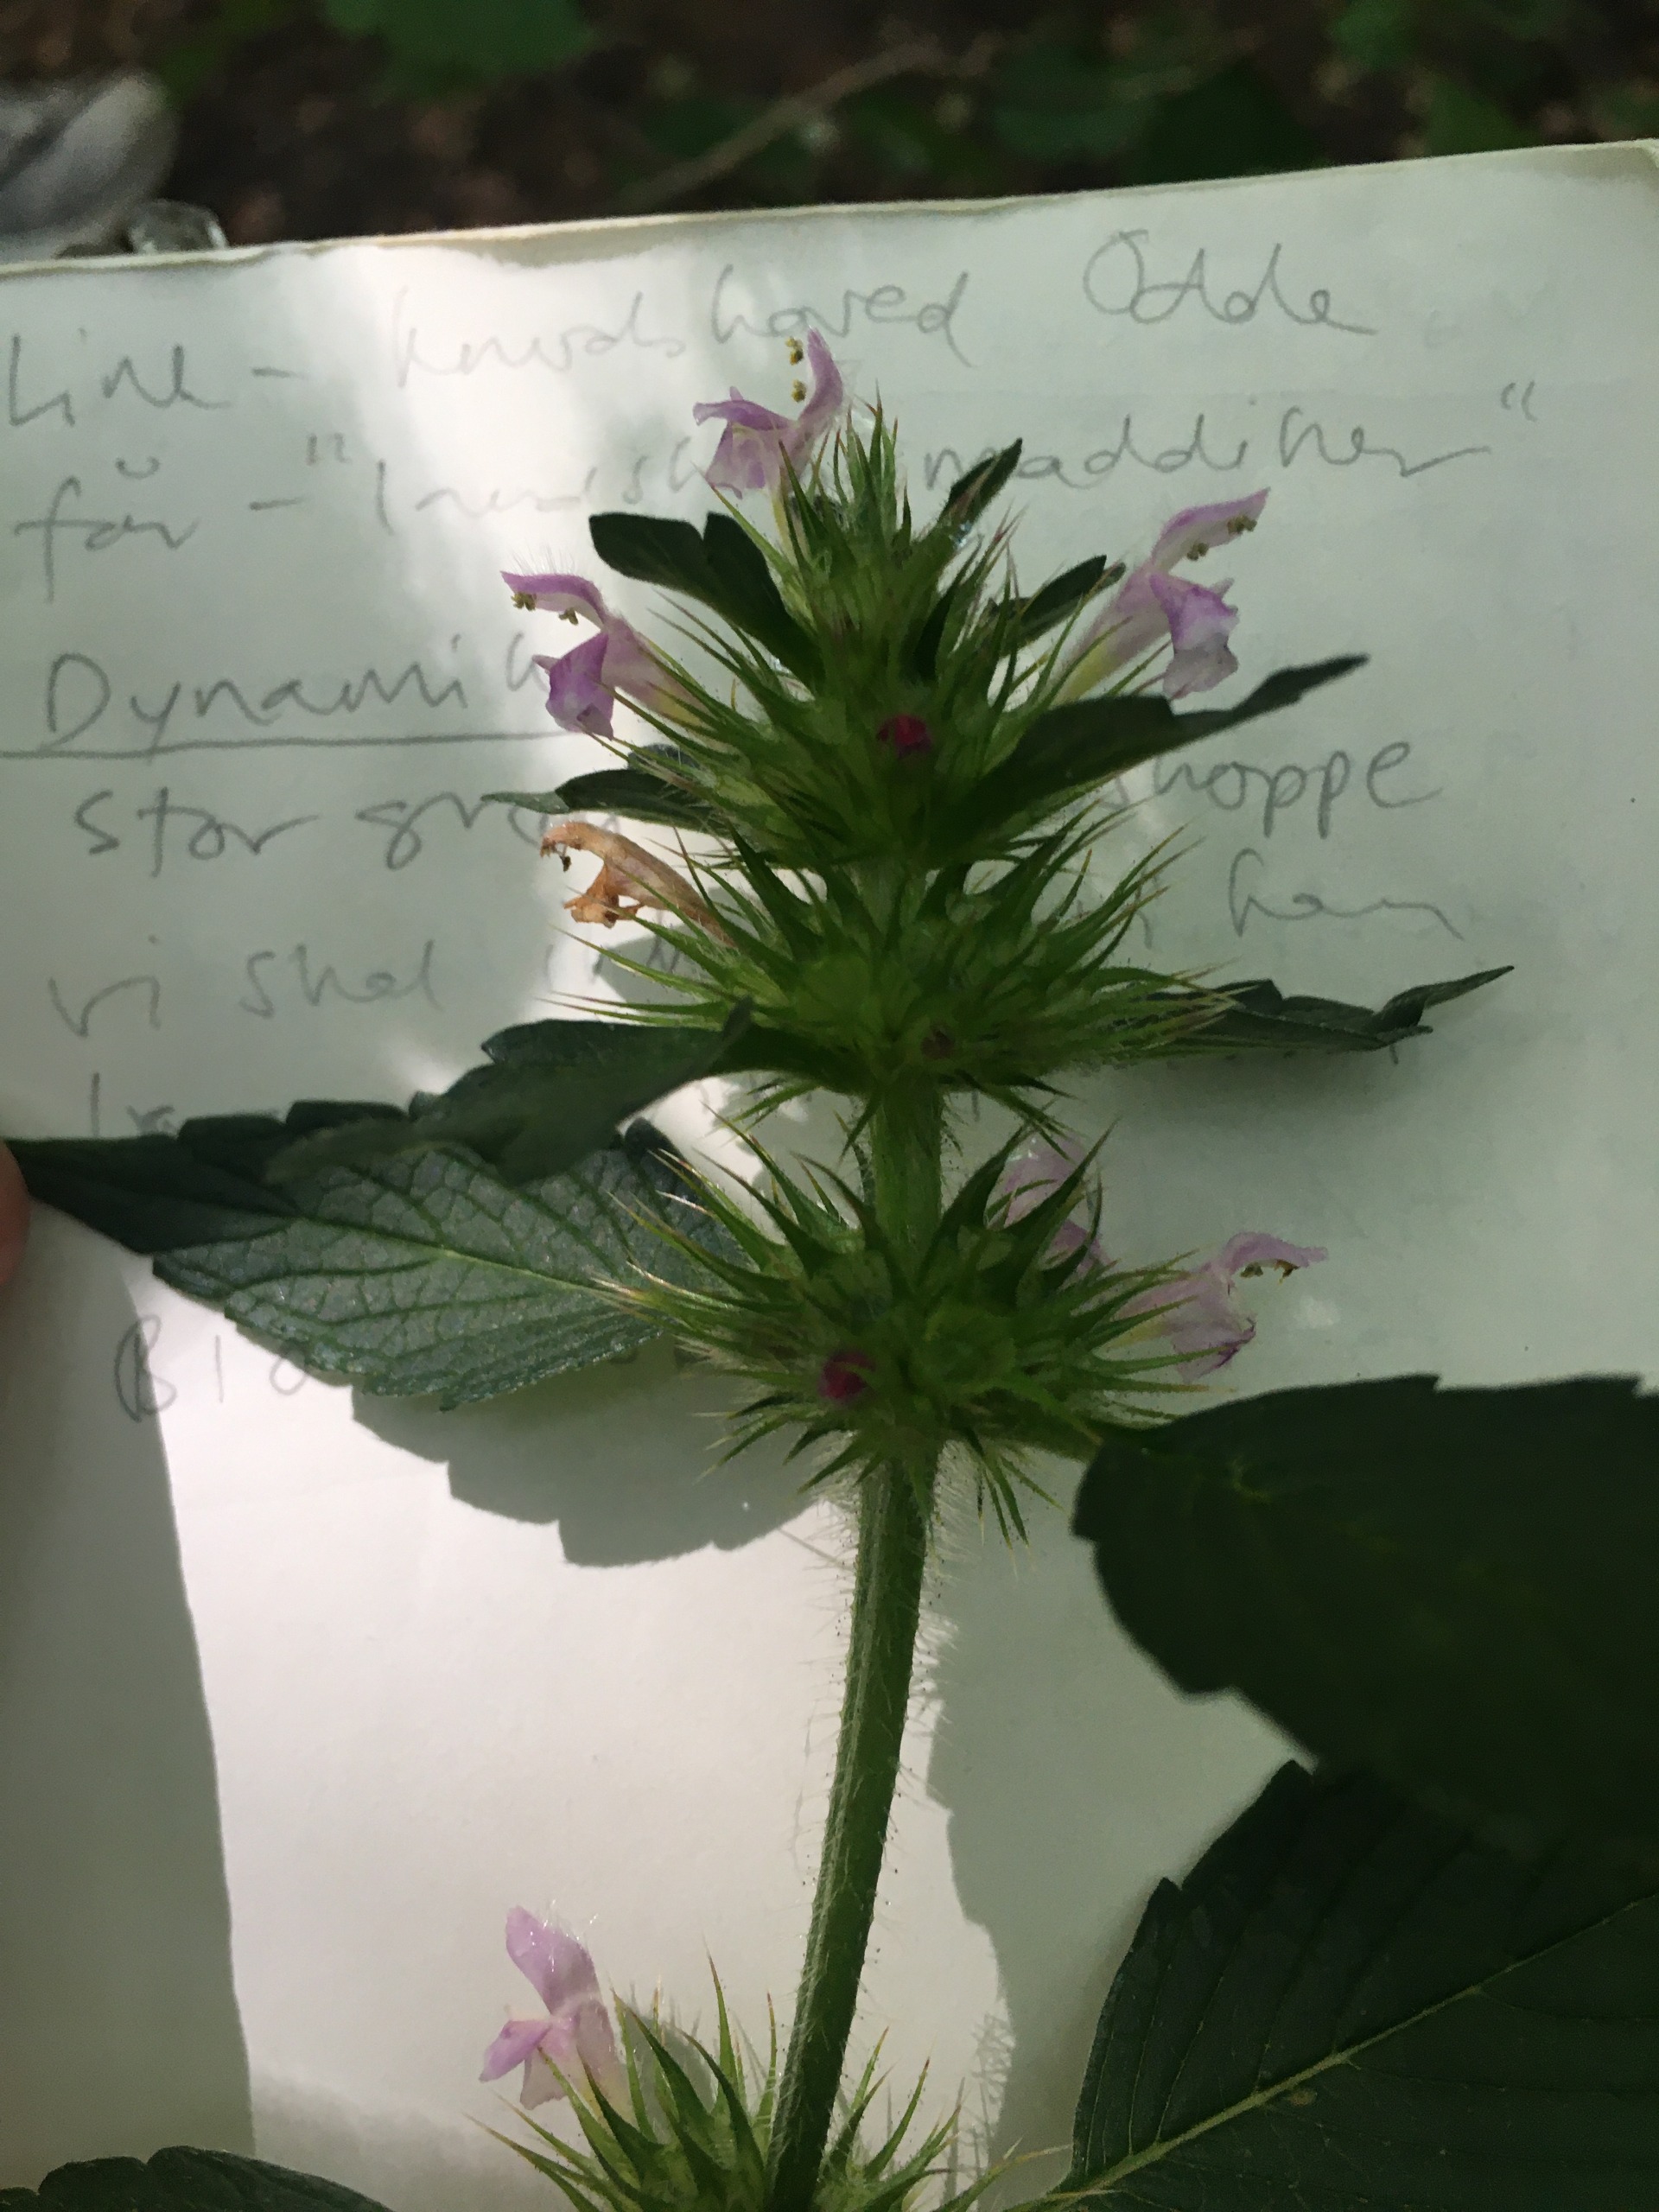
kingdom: Plantae
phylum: Tracheophyta
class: Magnoliopsida
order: Lamiales
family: Lamiaceae
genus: Galeopsis
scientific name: Galeopsis tetrahit
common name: Almindelig hanekro
